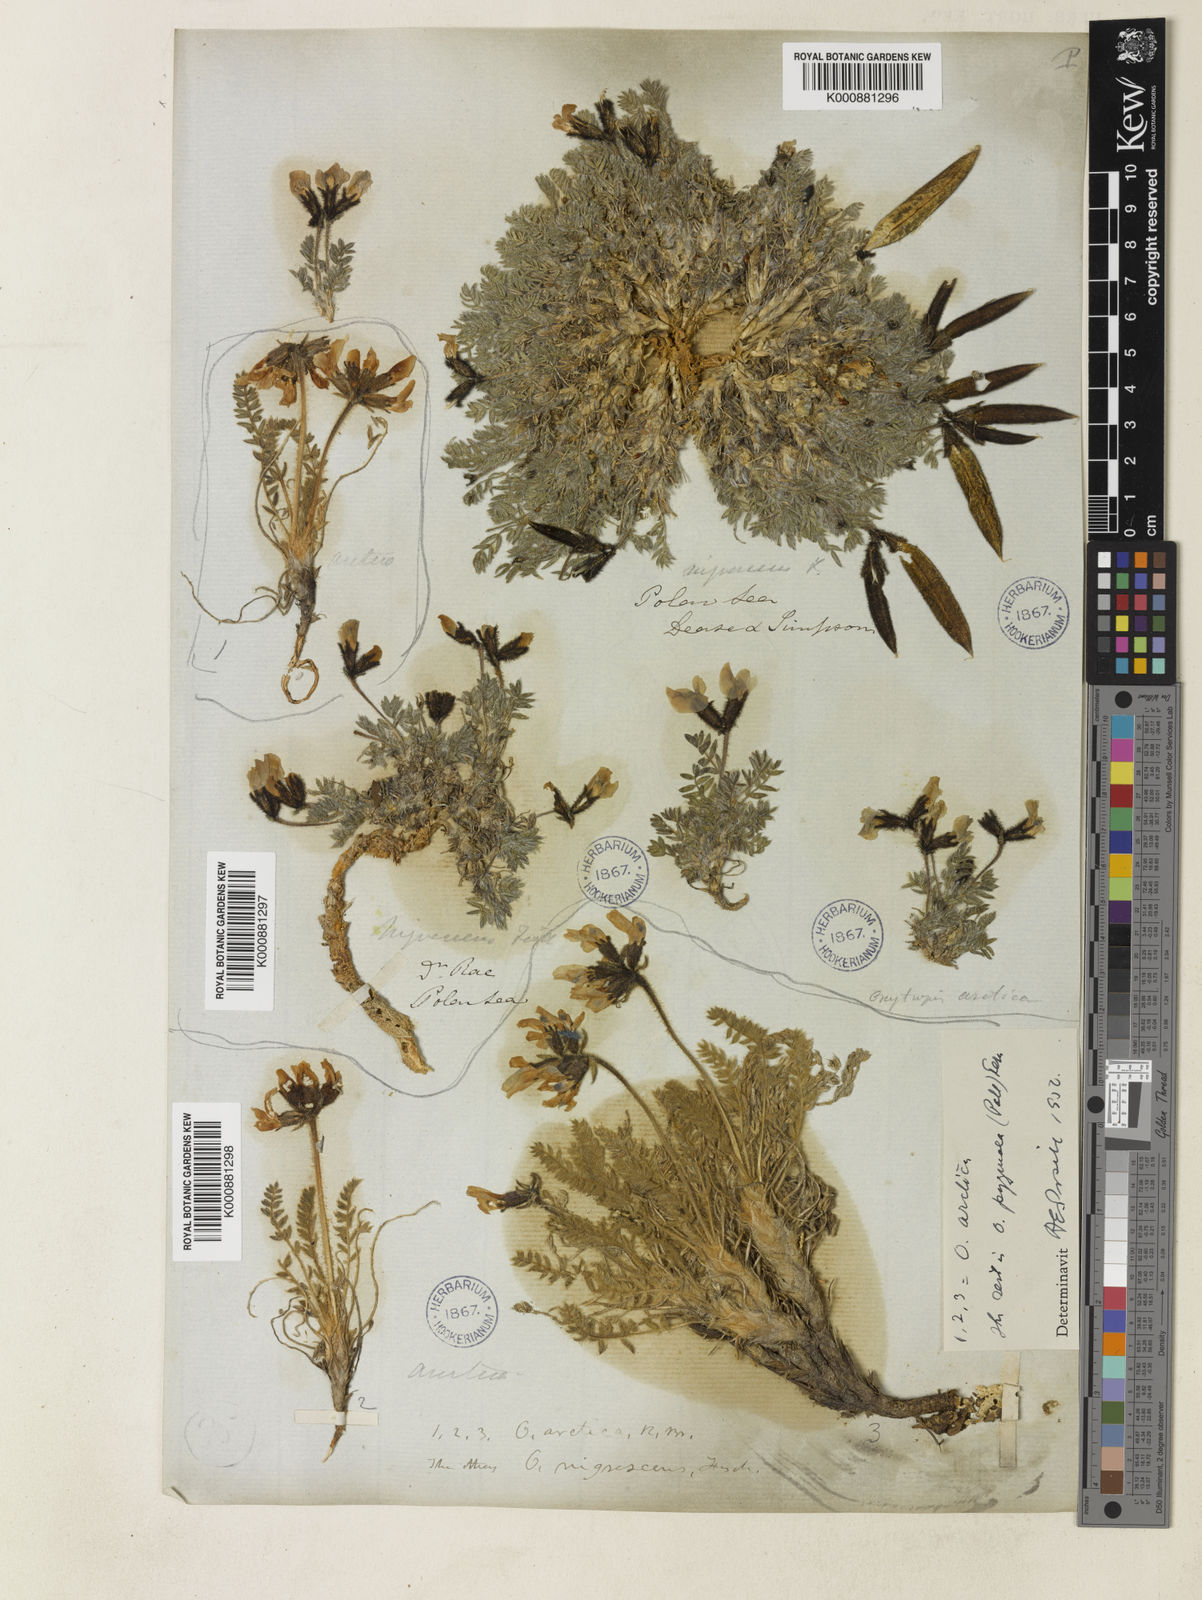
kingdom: Plantae
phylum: Tracheophyta
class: Magnoliopsida
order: Fabales
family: Fabaceae
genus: Oxytropis
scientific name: Oxytropis nigrescens
